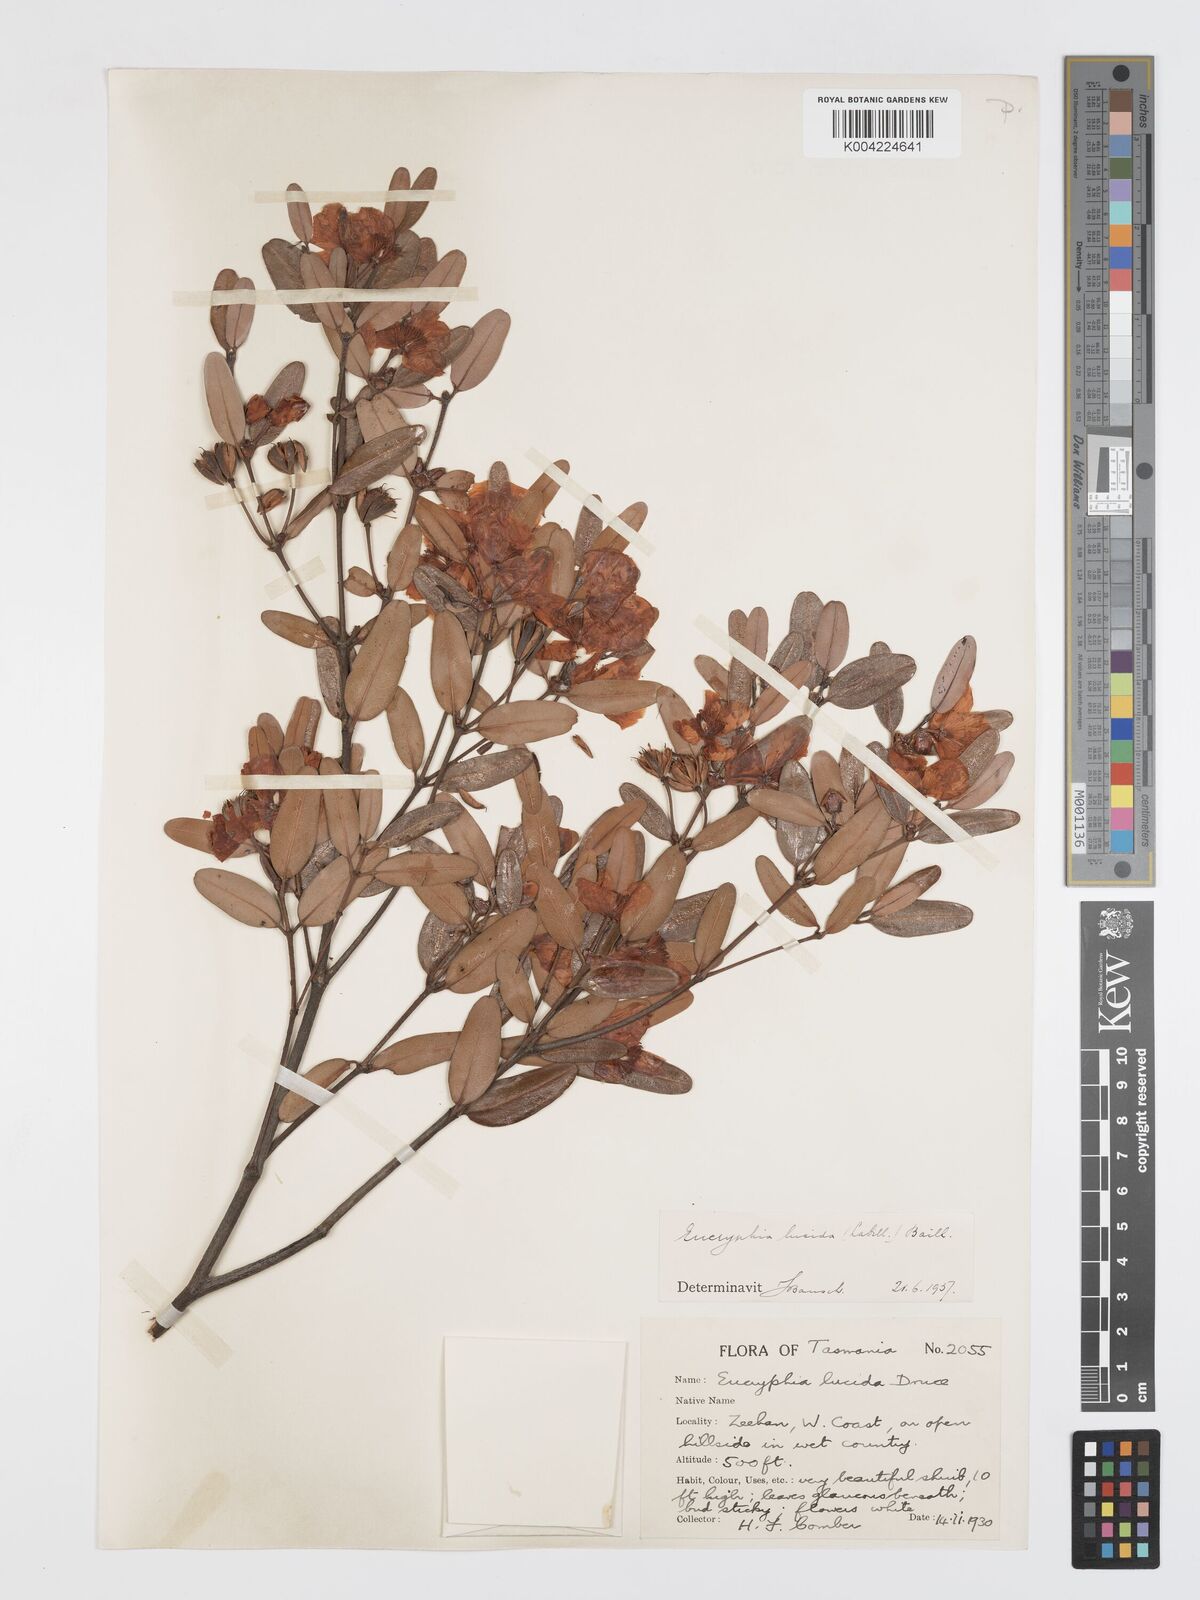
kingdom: Plantae
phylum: Tracheophyta
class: Magnoliopsida
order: Oxalidales
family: Cunoniaceae
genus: Eucryphia
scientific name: Eucryphia lucida
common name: Leatherwood
